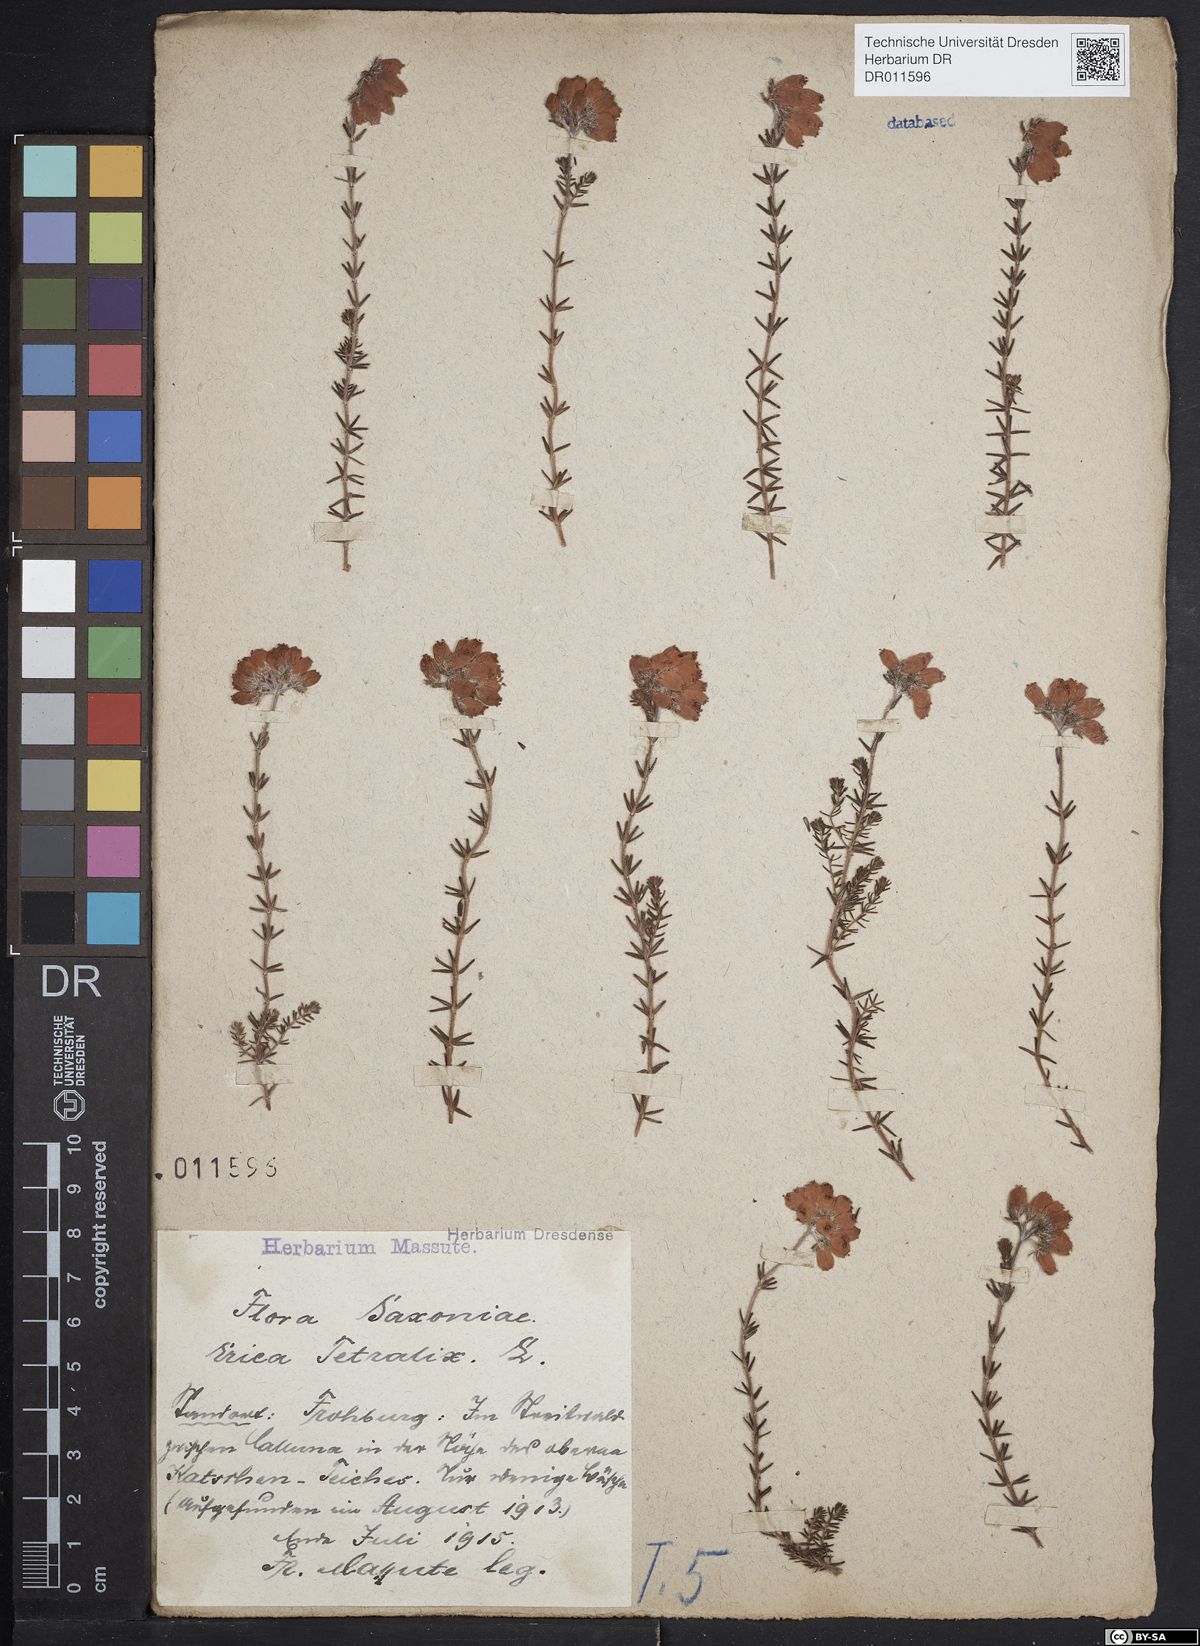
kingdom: Plantae
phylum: Tracheophyta
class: Magnoliopsida
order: Ericales
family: Ericaceae
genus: Erica
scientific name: Erica tetralix
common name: Cross-leaved heath
